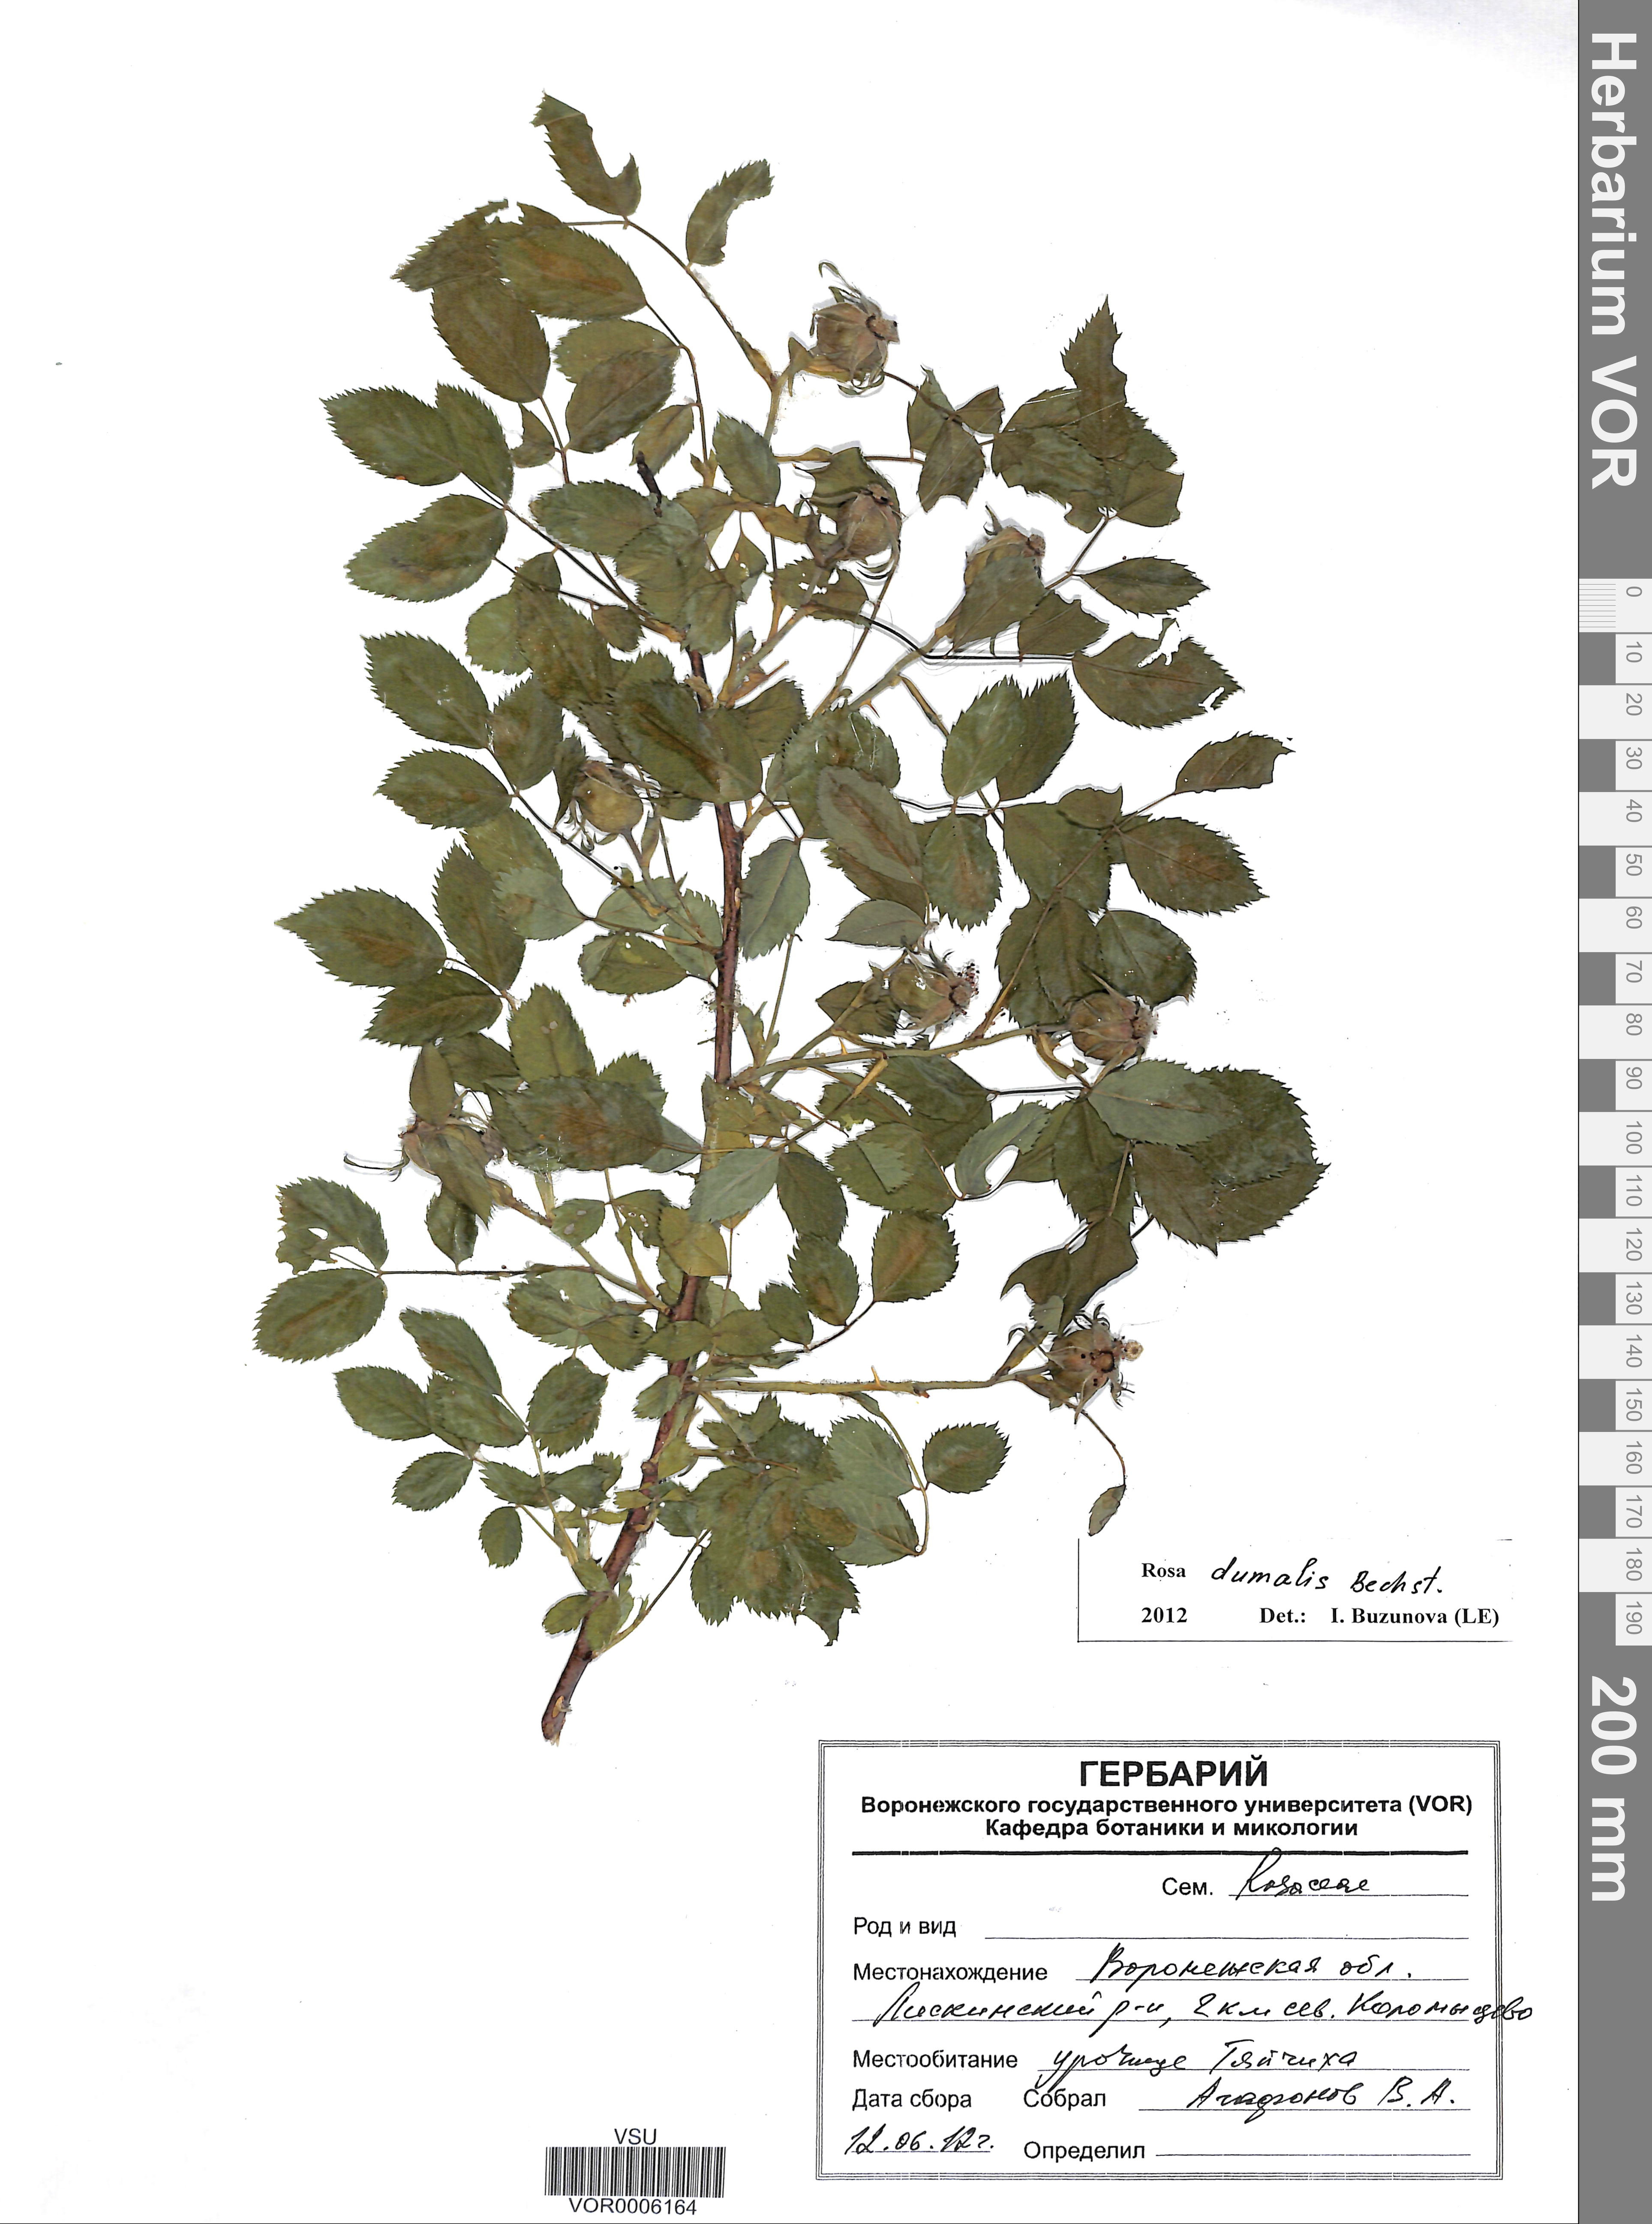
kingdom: Plantae
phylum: Tracheophyta
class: Magnoliopsida
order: Rosales
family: Rosaceae
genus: Rosa
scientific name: Rosa dumalis
